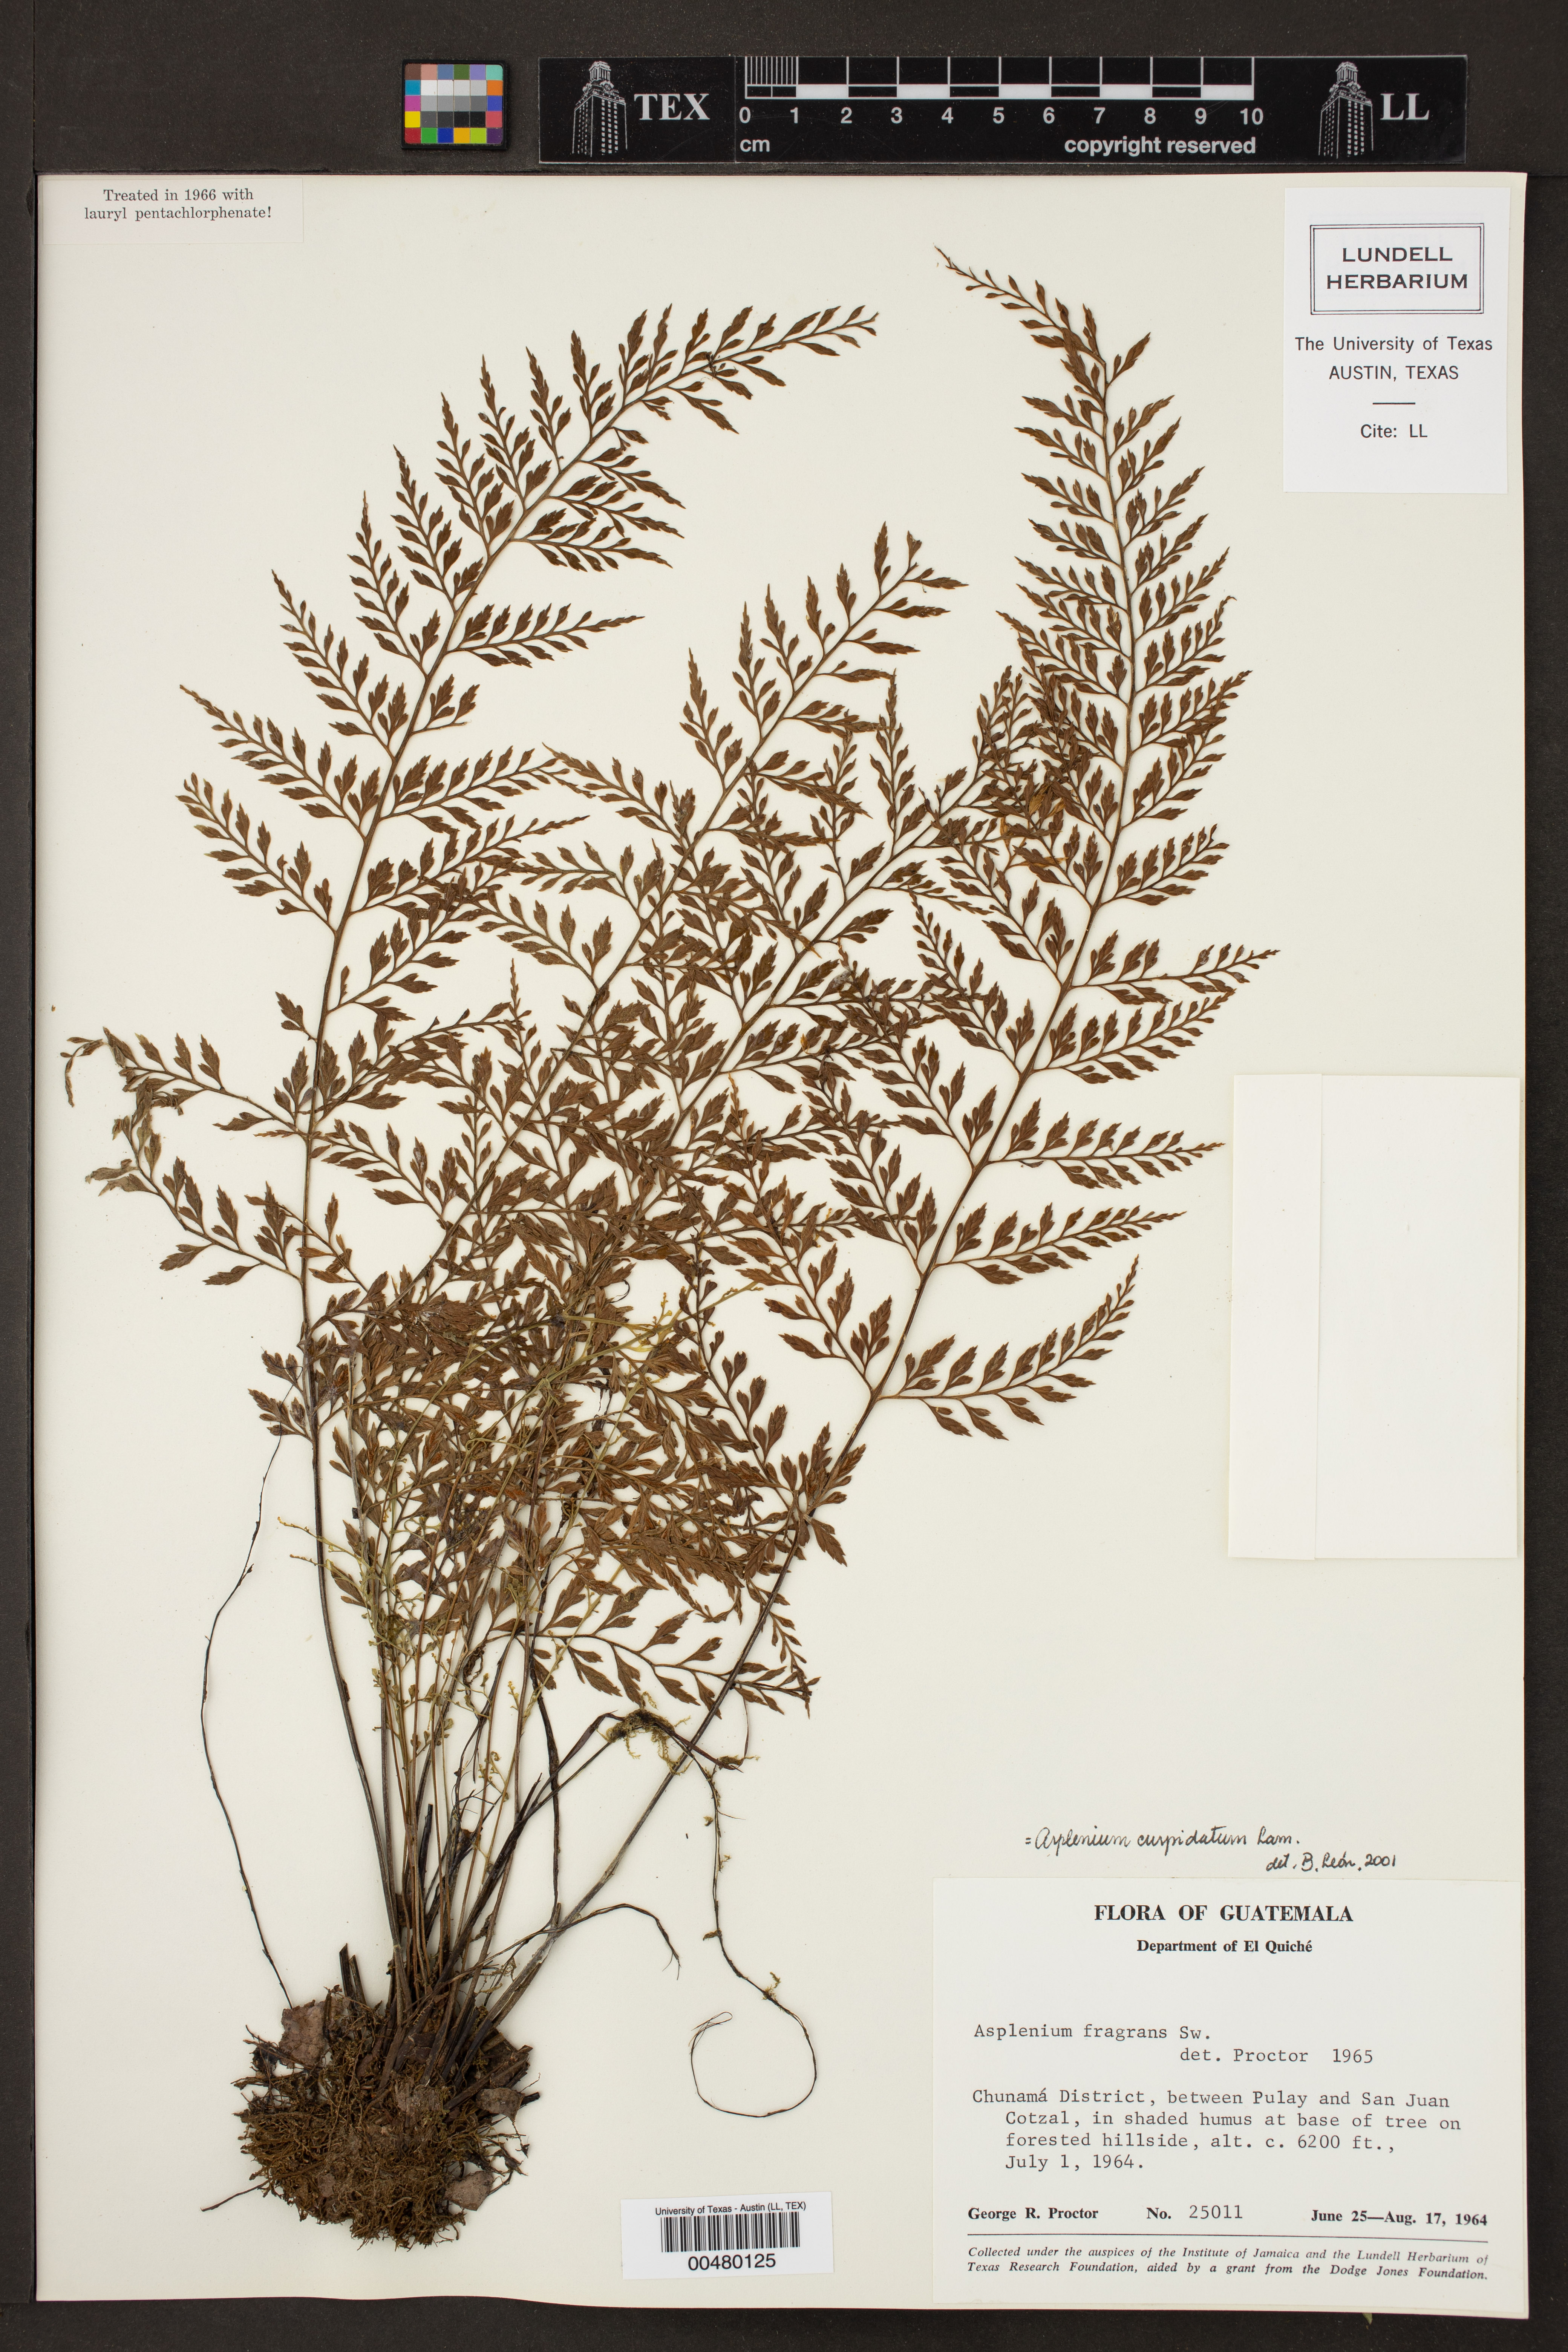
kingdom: Plantae
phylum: Tracheophyta
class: Polypodiopsida
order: Polypodiales
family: Aspleniaceae
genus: Asplenium
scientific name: Asplenium cuspidatum
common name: Eared spleenwort
